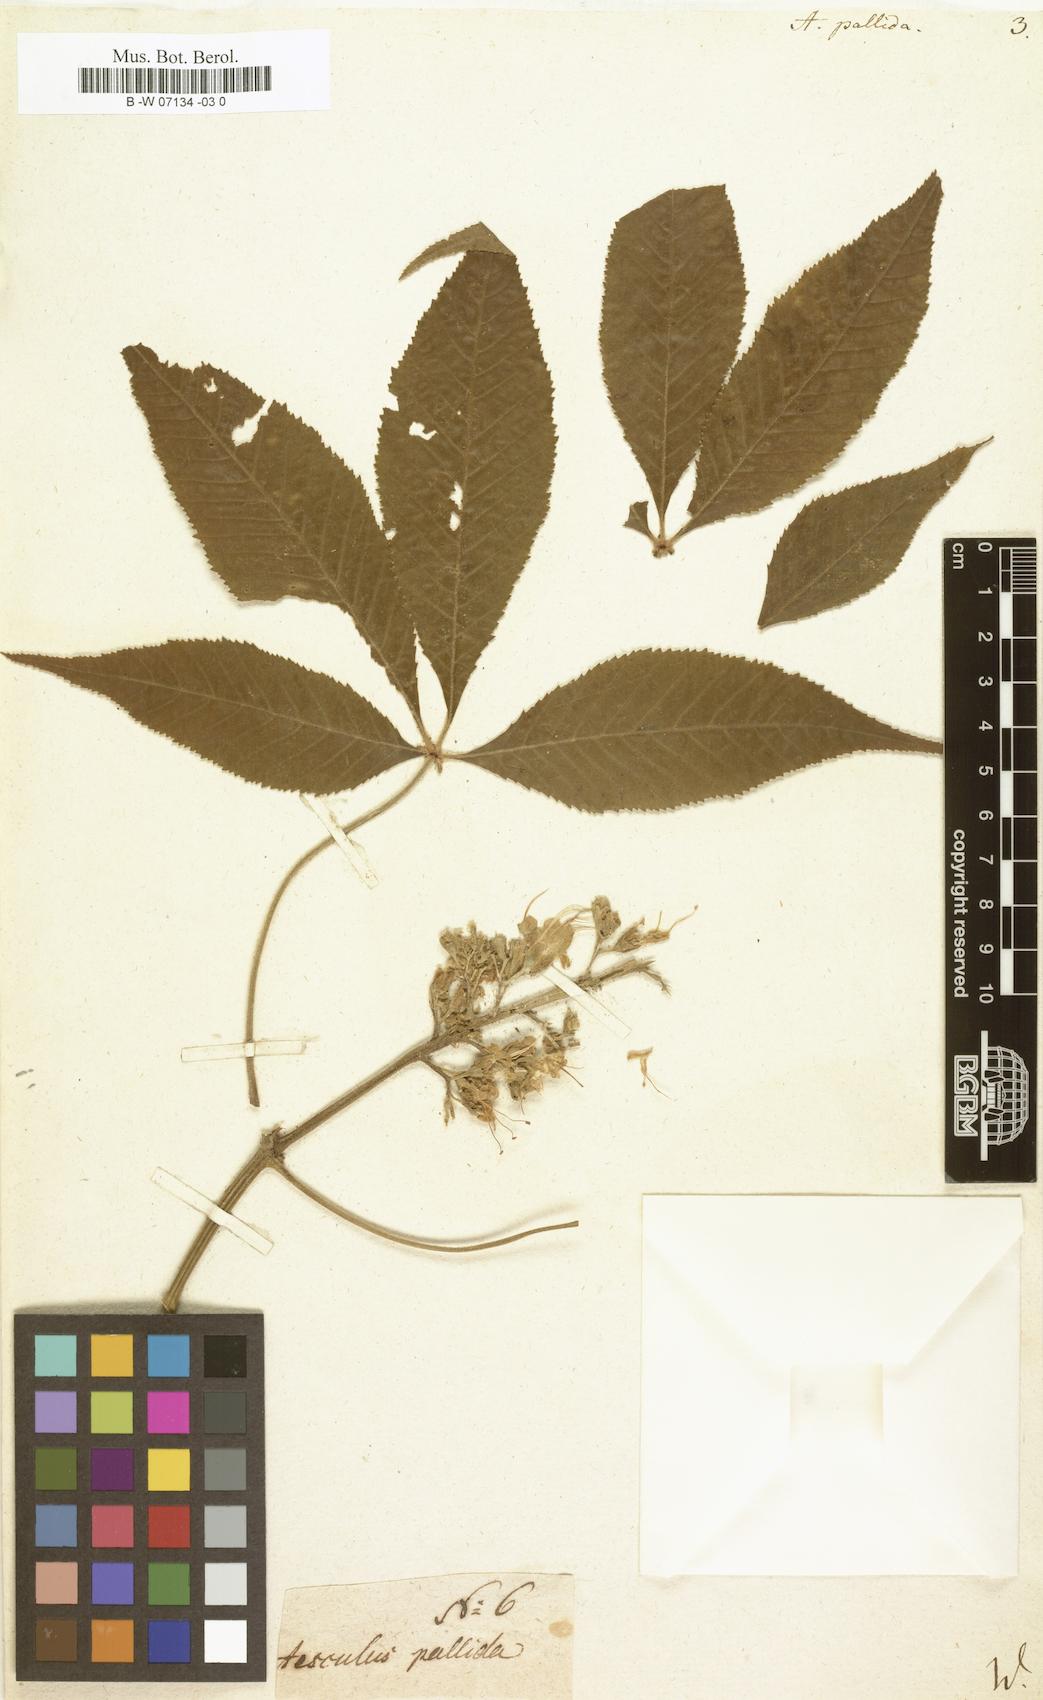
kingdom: Plantae
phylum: Tracheophyta
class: Magnoliopsida
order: Sapindales
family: Sapindaceae
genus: Aesculus
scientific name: Aesculus glabra
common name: Ohio buckeye
